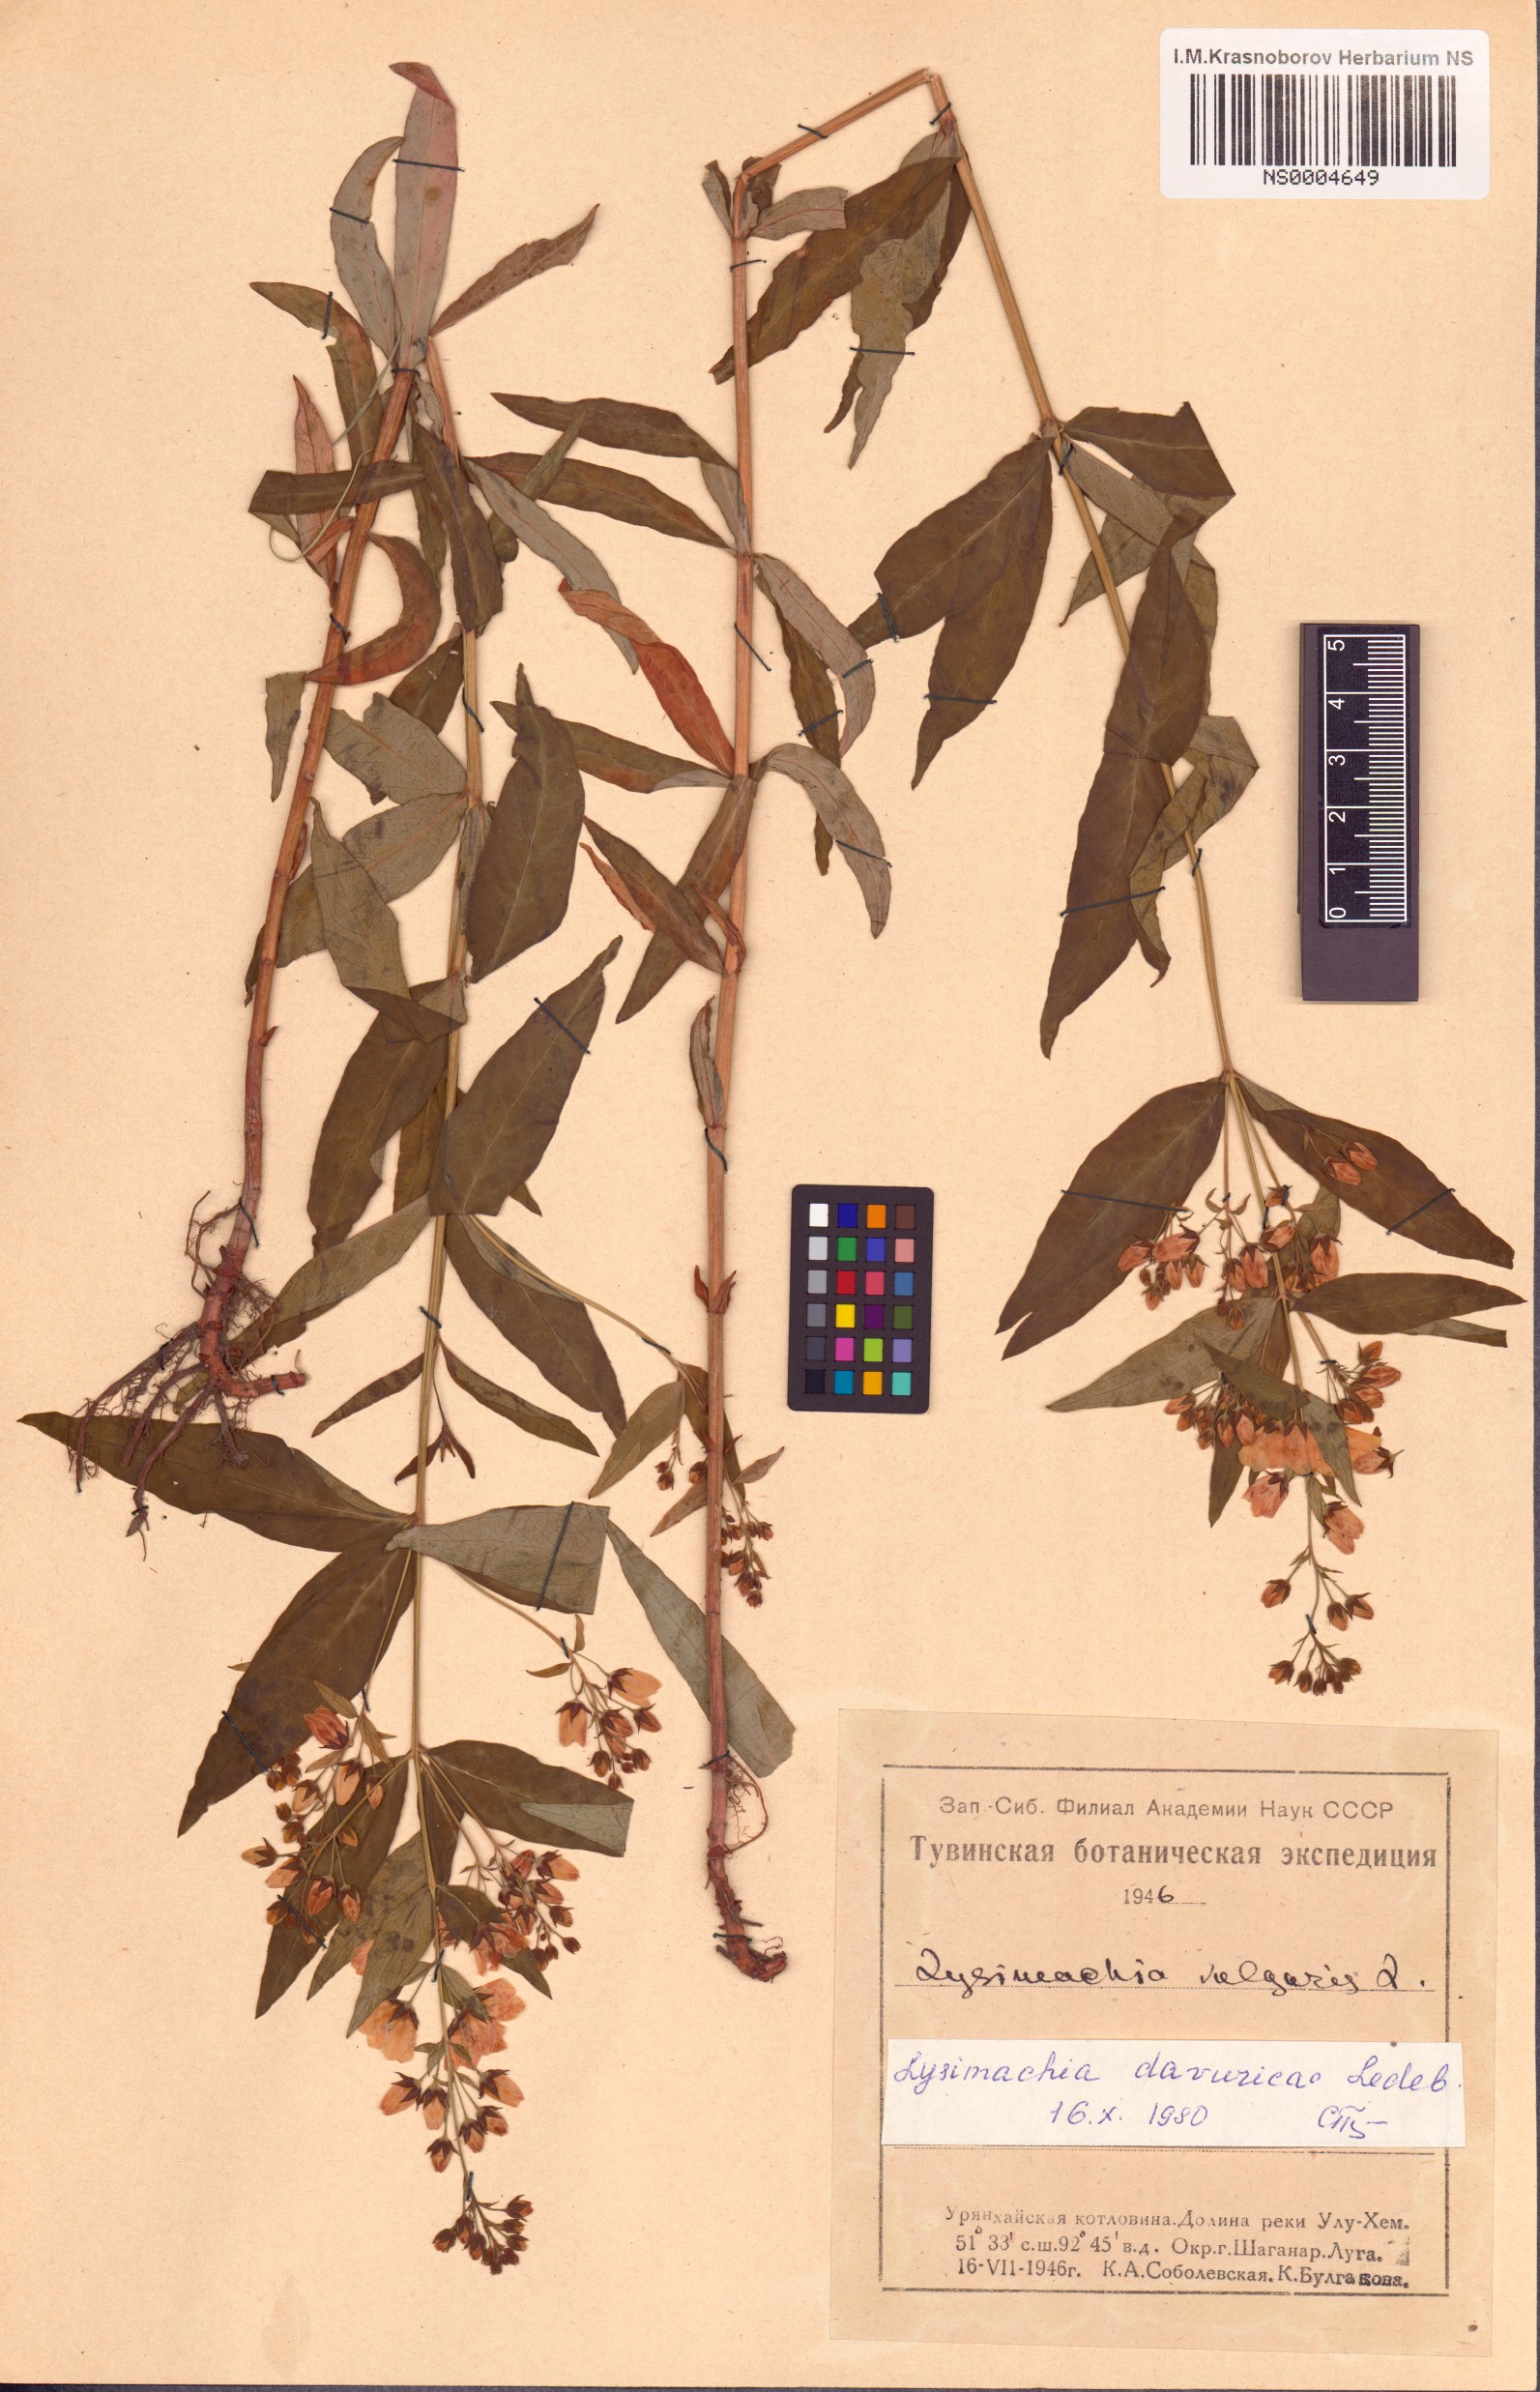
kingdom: Plantae
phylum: Tracheophyta
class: Magnoliopsida
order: Ericales
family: Primulaceae
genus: Lysimachia
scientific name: Lysimachia davurica
